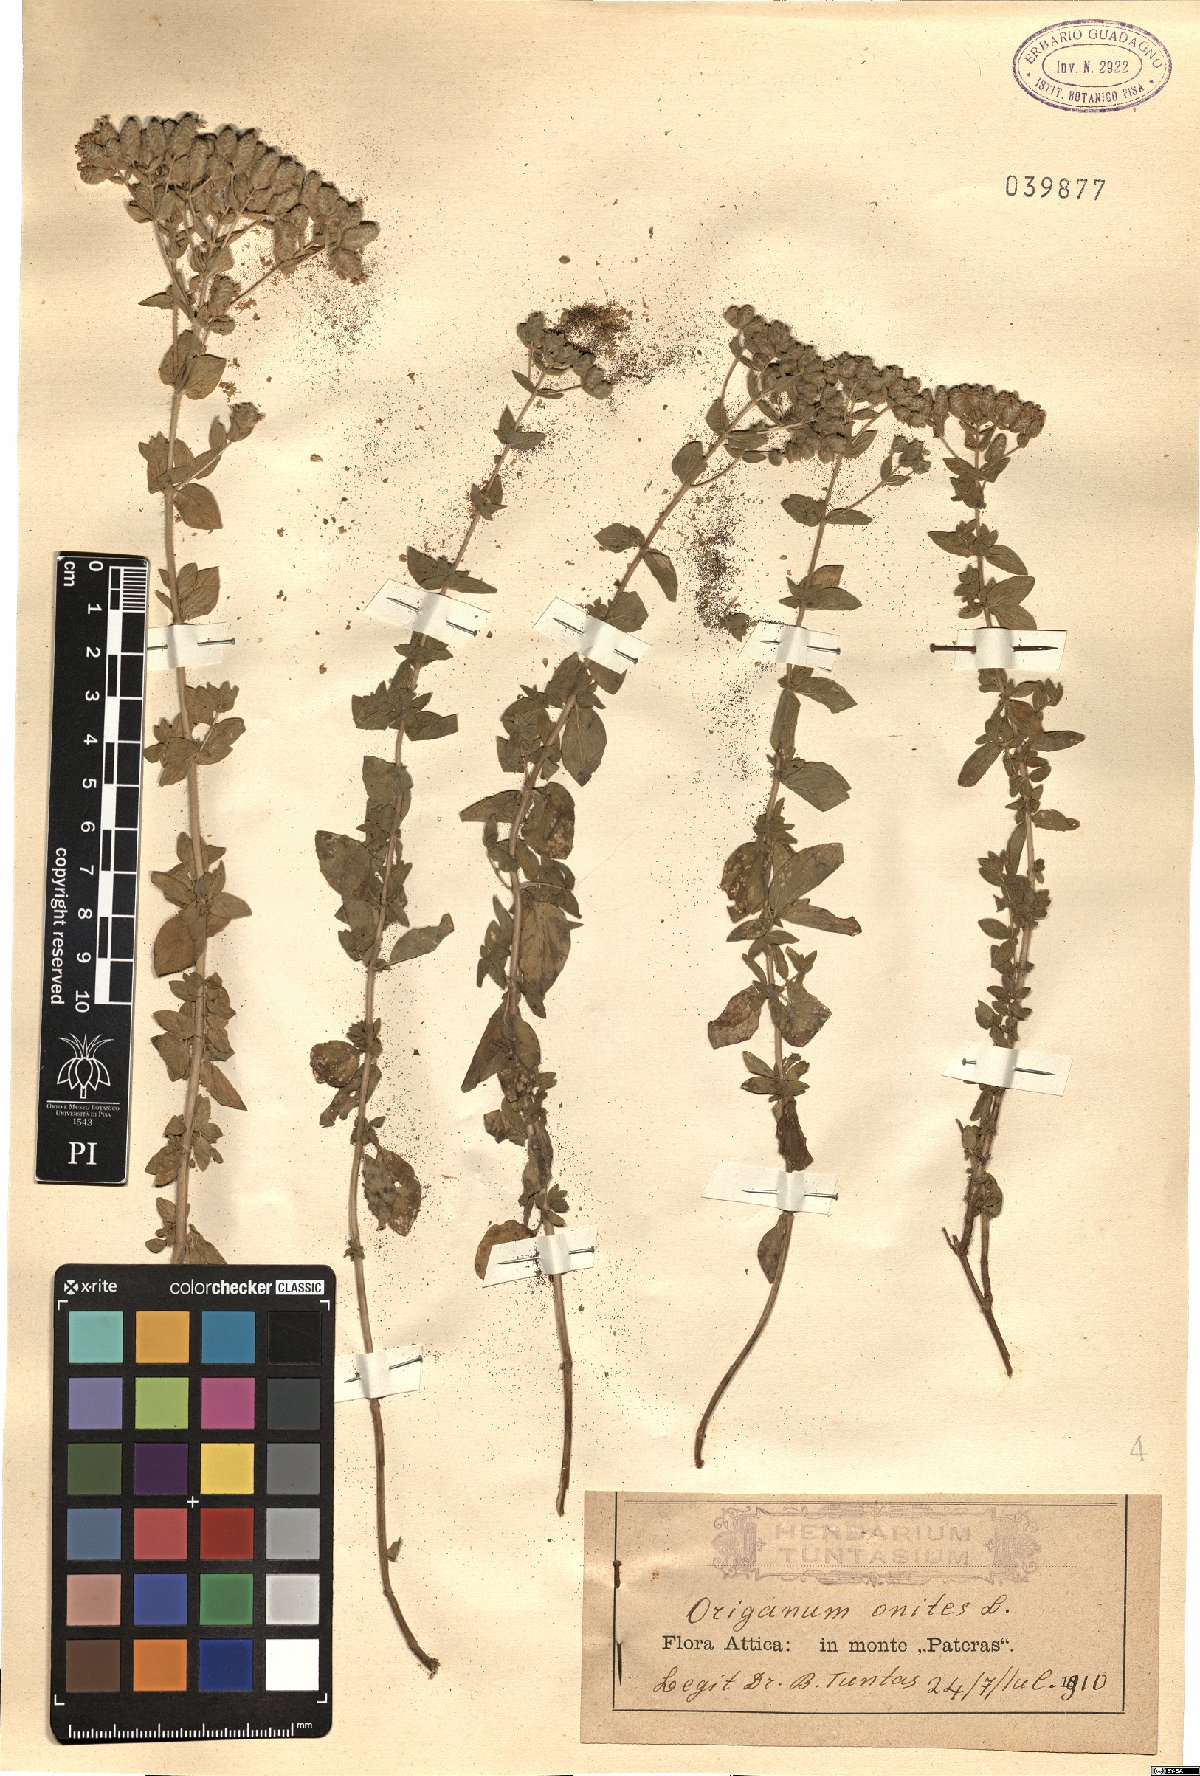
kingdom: Plantae
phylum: Tracheophyta
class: Magnoliopsida
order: Lamiales
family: Lamiaceae
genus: Origanum
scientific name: Origanum onites
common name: Turkish oregano
